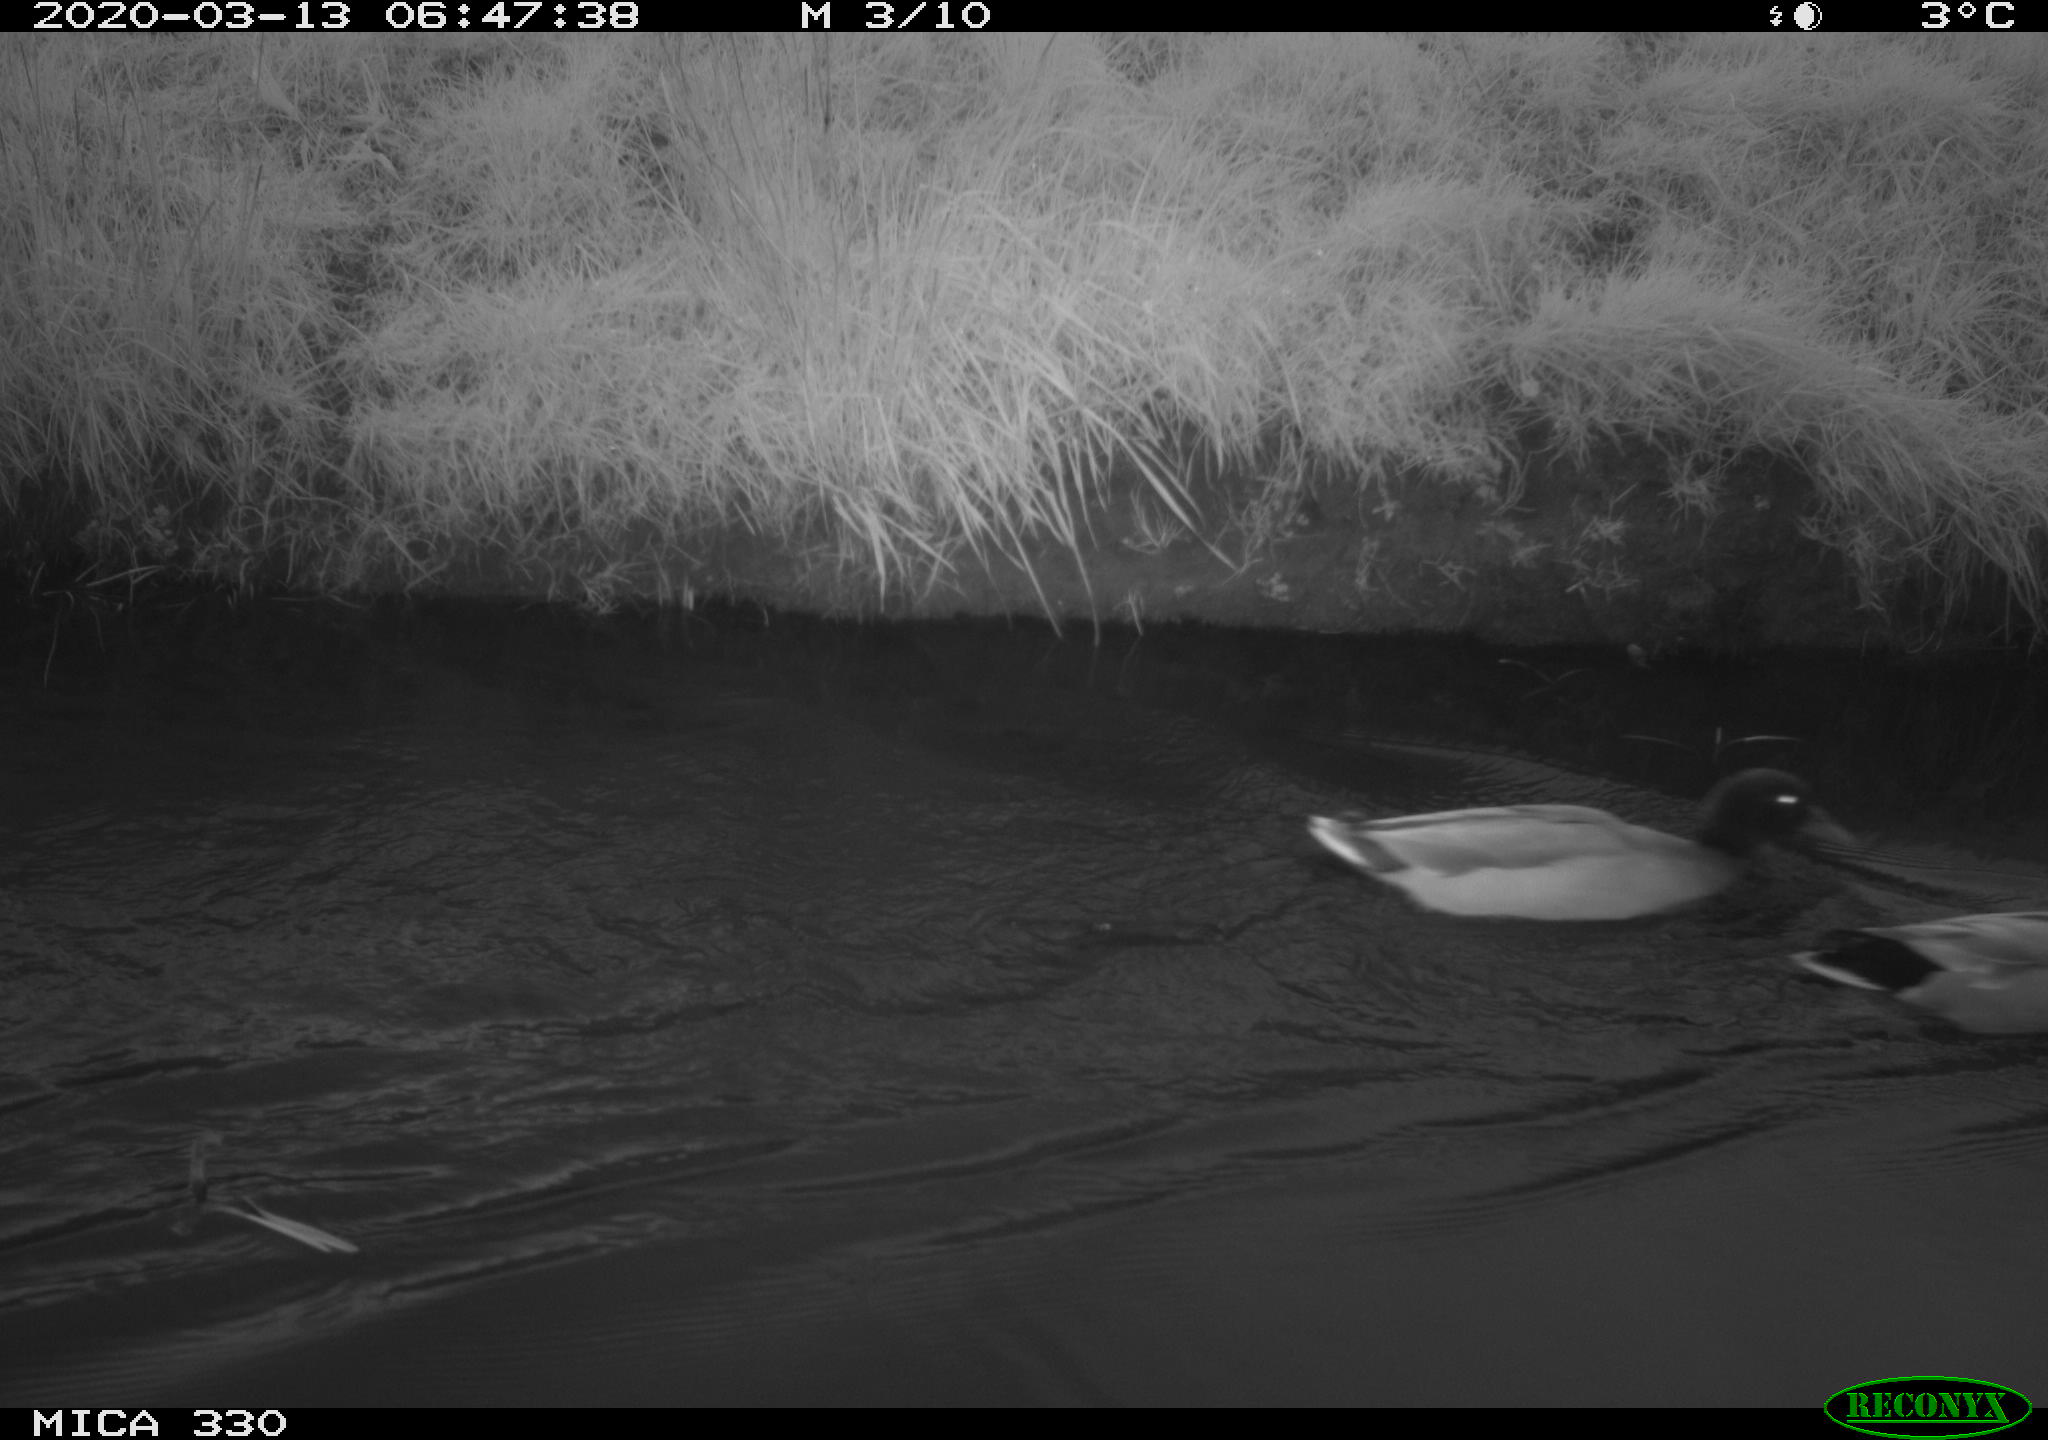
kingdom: Animalia
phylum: Chordata
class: Aves
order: Anseriformes
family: Anatidae
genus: Anas
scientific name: Anas platyrhynchos
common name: Mallard
